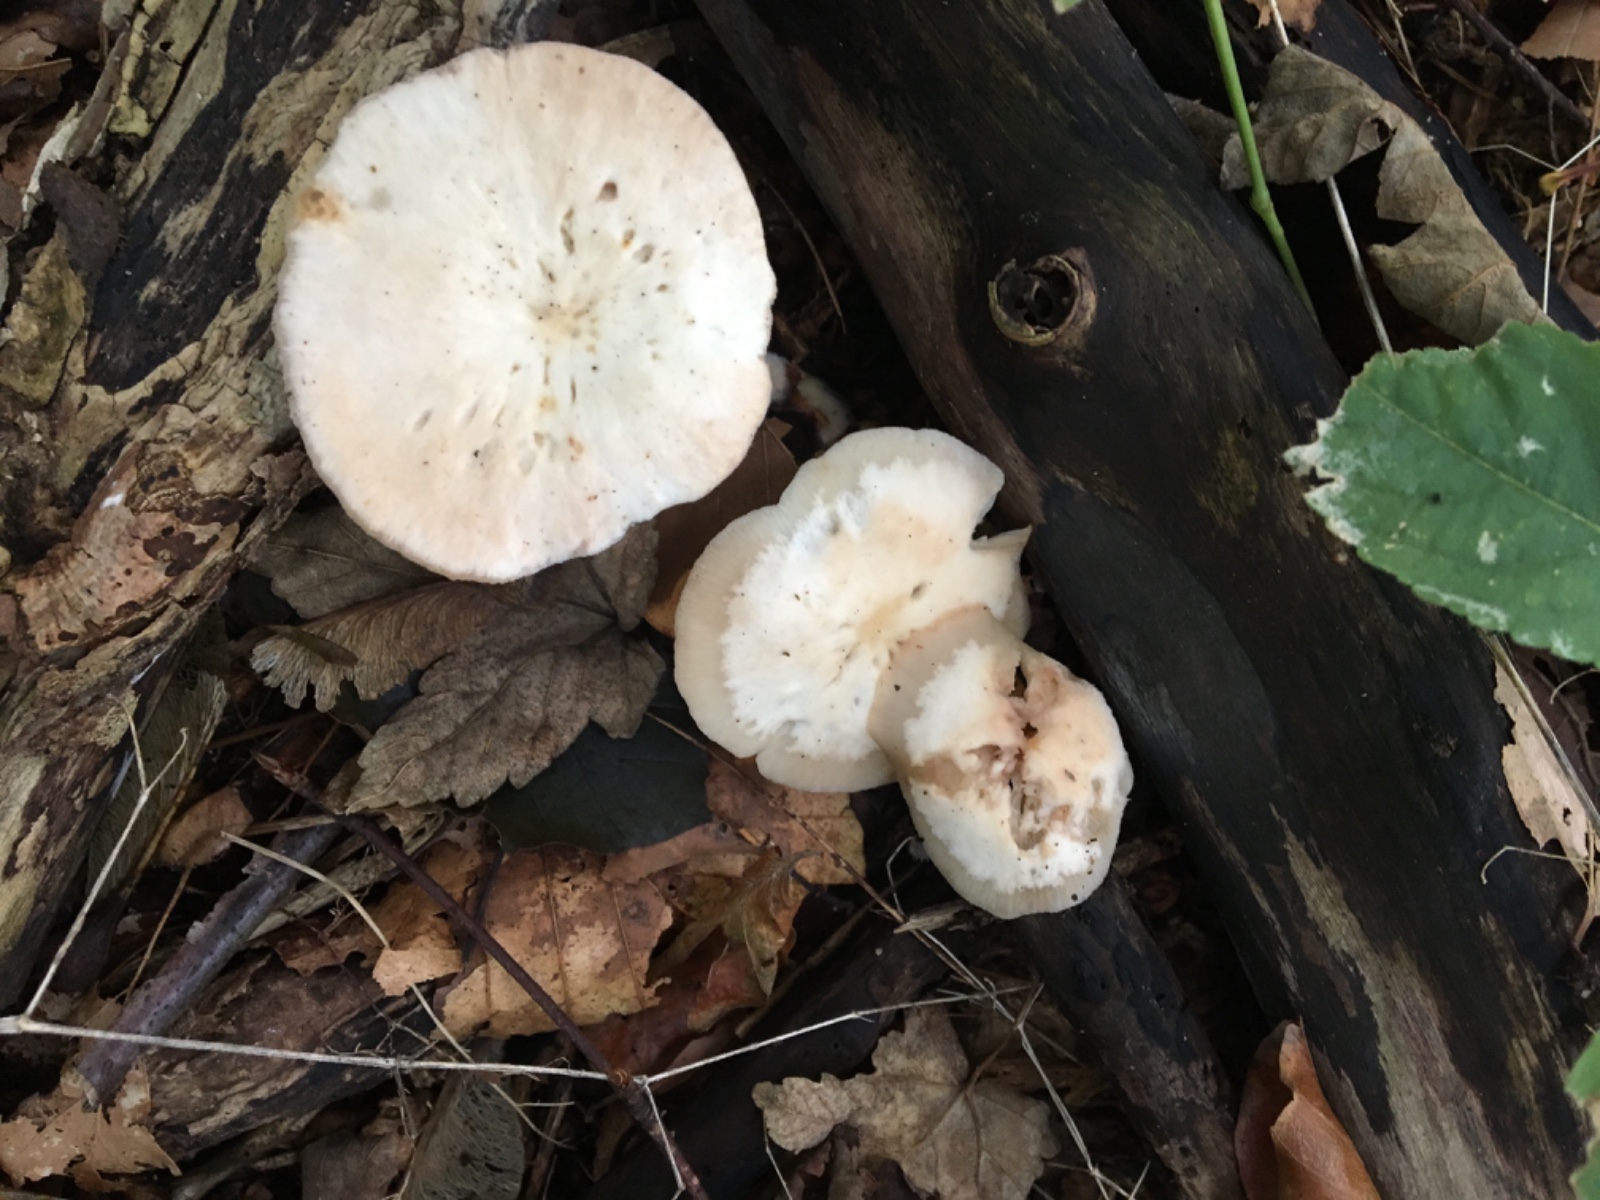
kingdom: Fungi
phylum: Basidiomycota
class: Agaricomycetes
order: Agaricales
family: Omphalotaceae
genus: Collybiopsis
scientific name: Collybiopsis confluens
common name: knippe-fladhat
